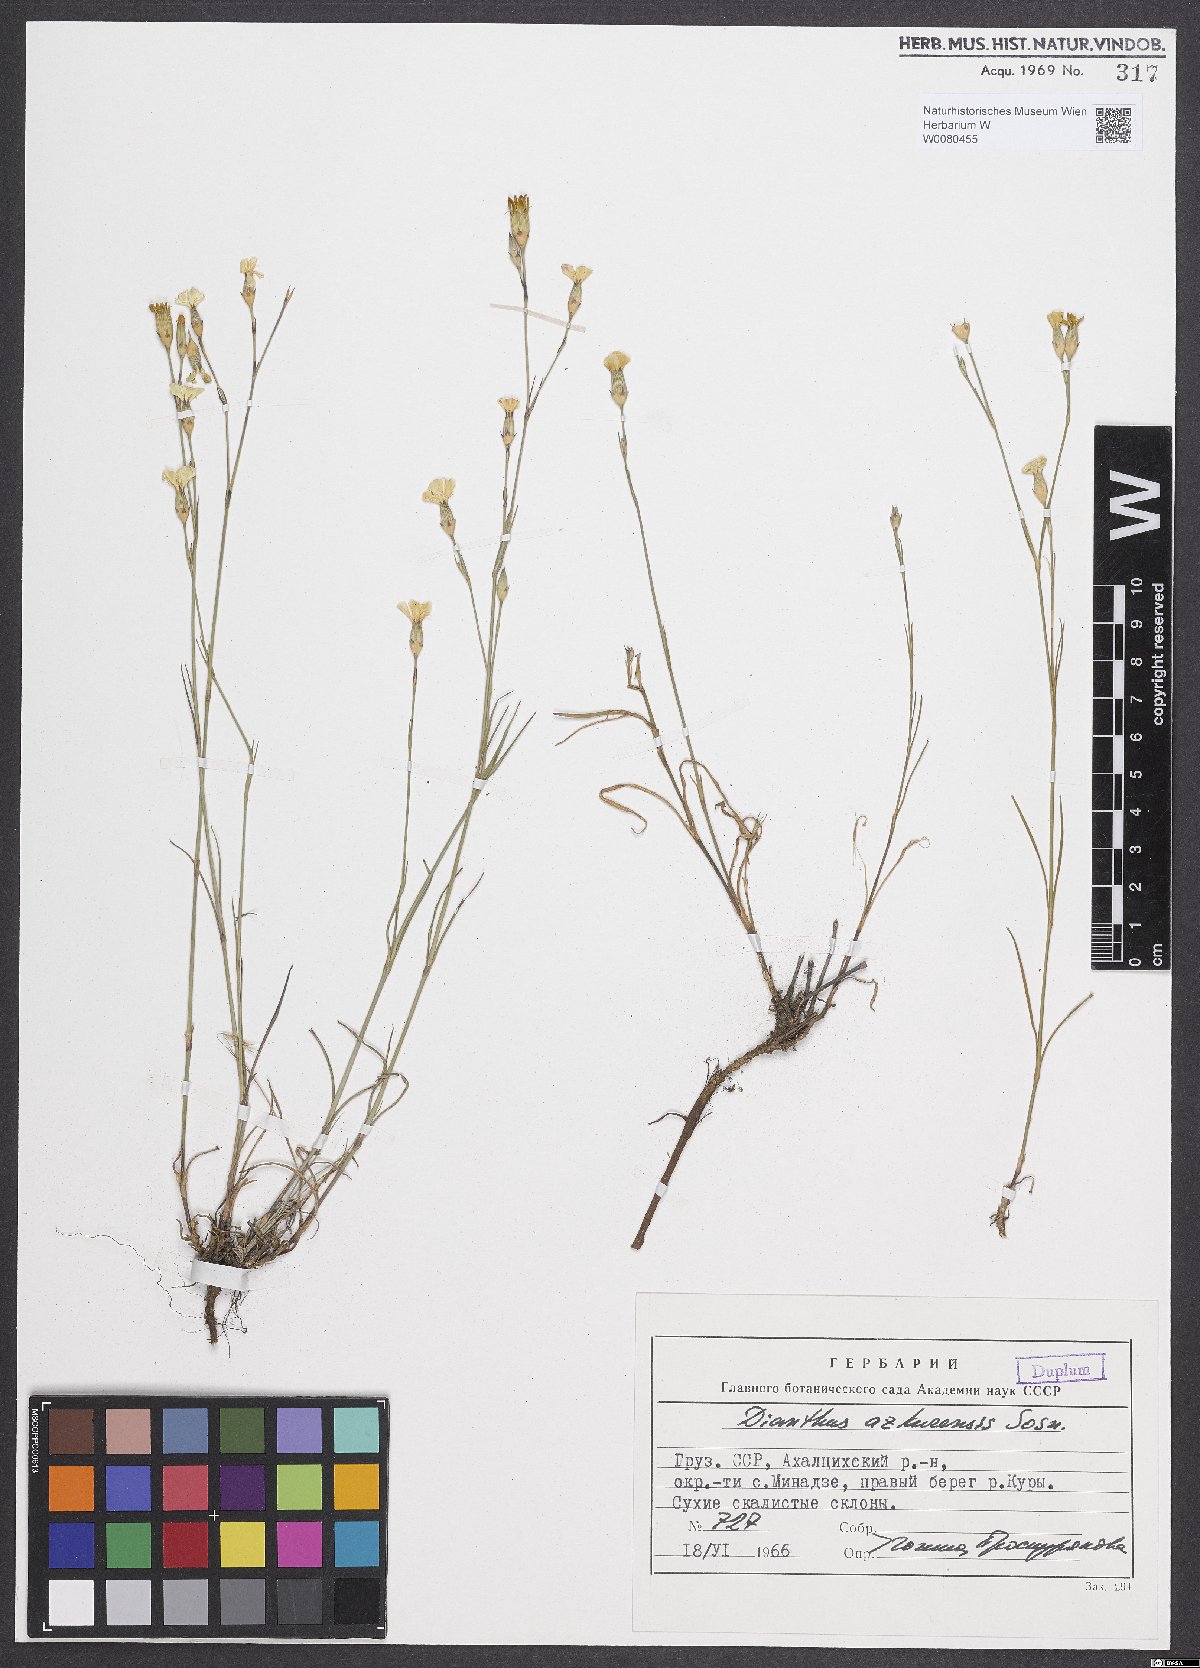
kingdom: Plantae
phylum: Tracheophyta
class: Magnoliopsida
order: Caryophyllales
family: Caryophyllaceae
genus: Dianthus
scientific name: Dianthus azkurensis
